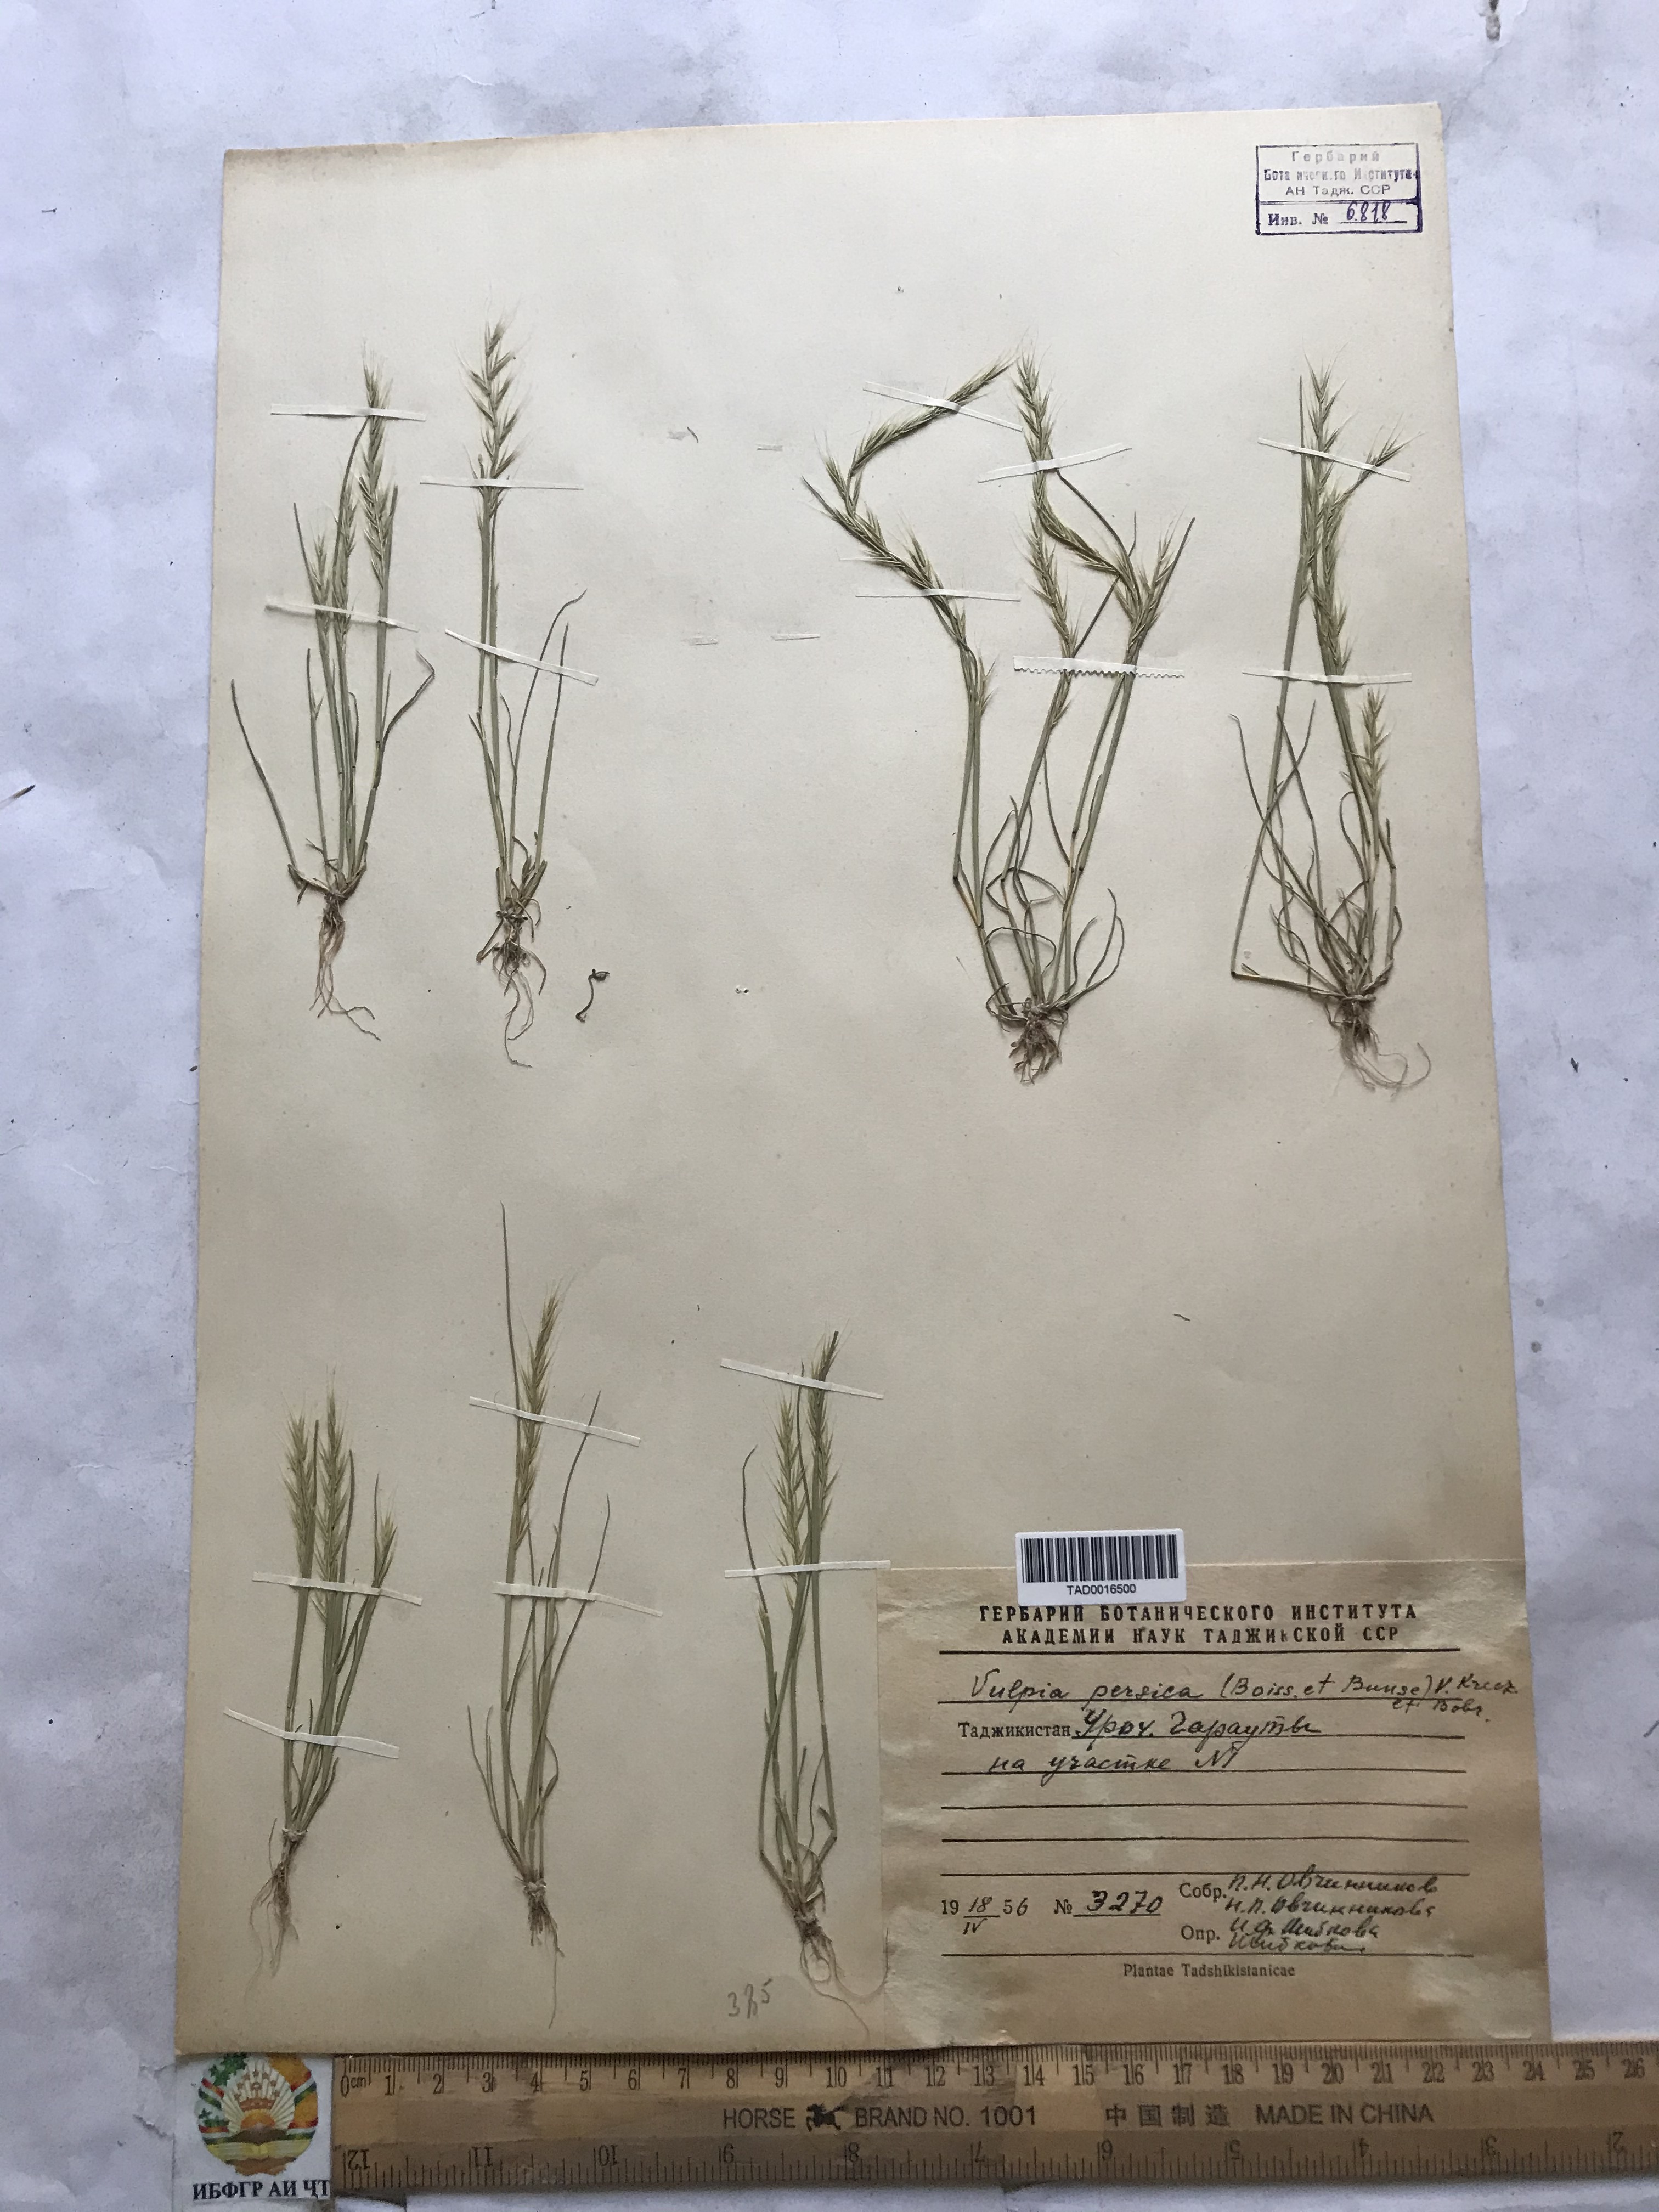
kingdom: Plantae
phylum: Tracheophyta
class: Liliopsida
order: Poales
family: Poaceae
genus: Festuca
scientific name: Festuca Vulpia persica
